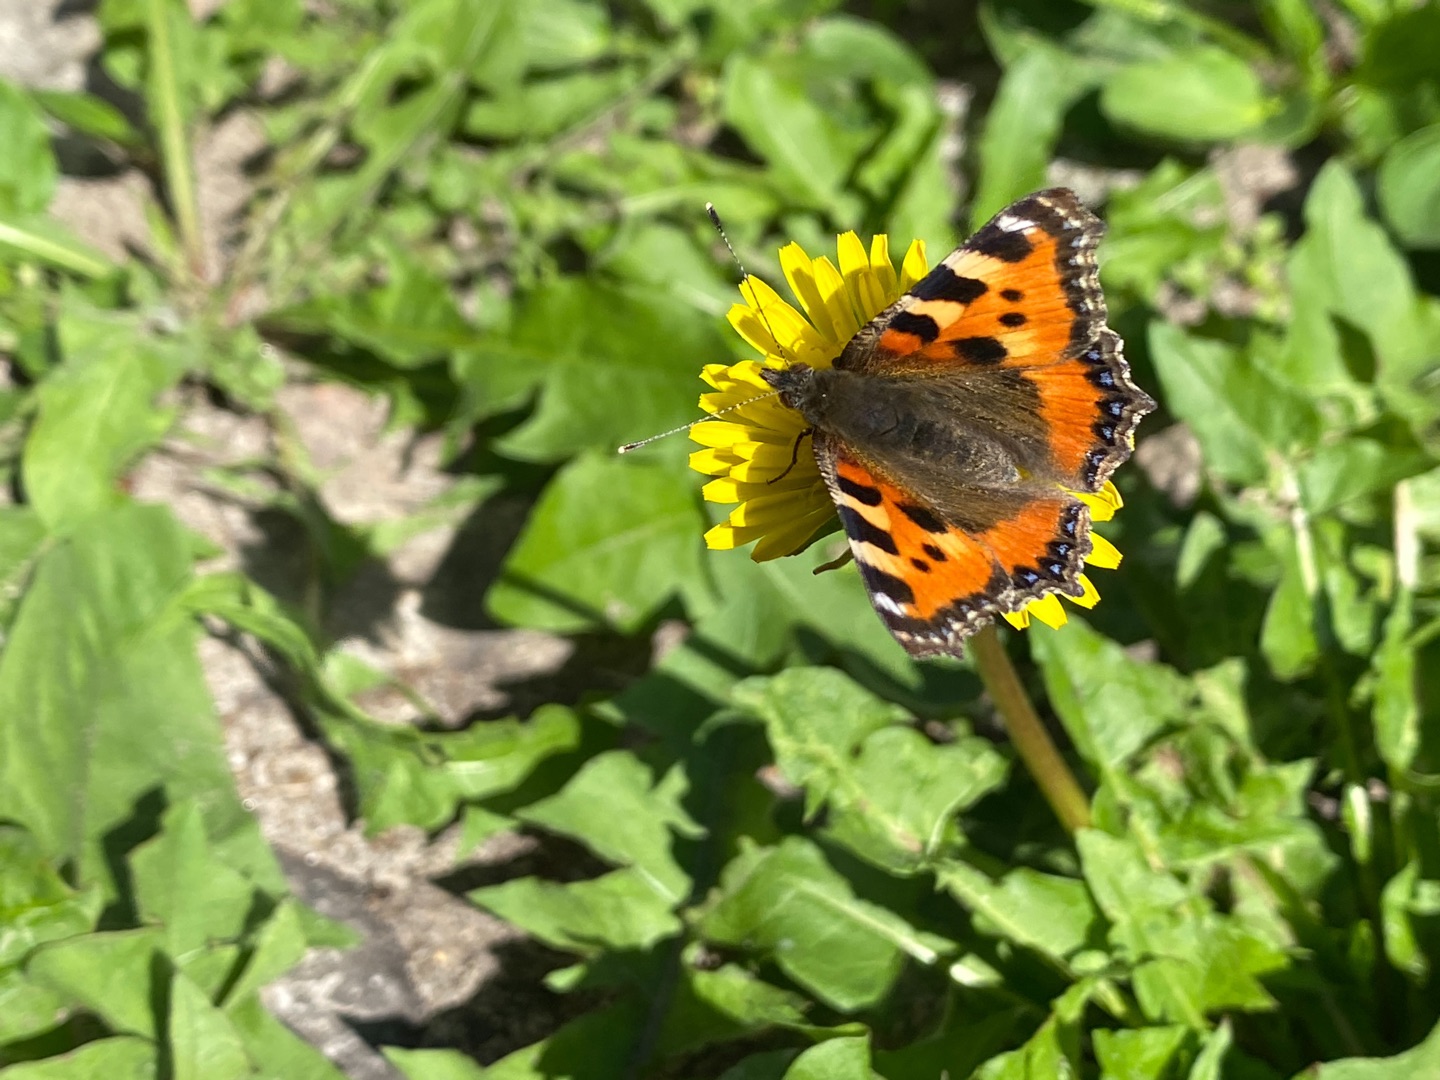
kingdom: Animalia
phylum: Arthropoda
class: Insecta
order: Lepidoptera
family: Nymphalidae
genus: Aglais
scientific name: Aglais urticae
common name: Nældens takvinge
